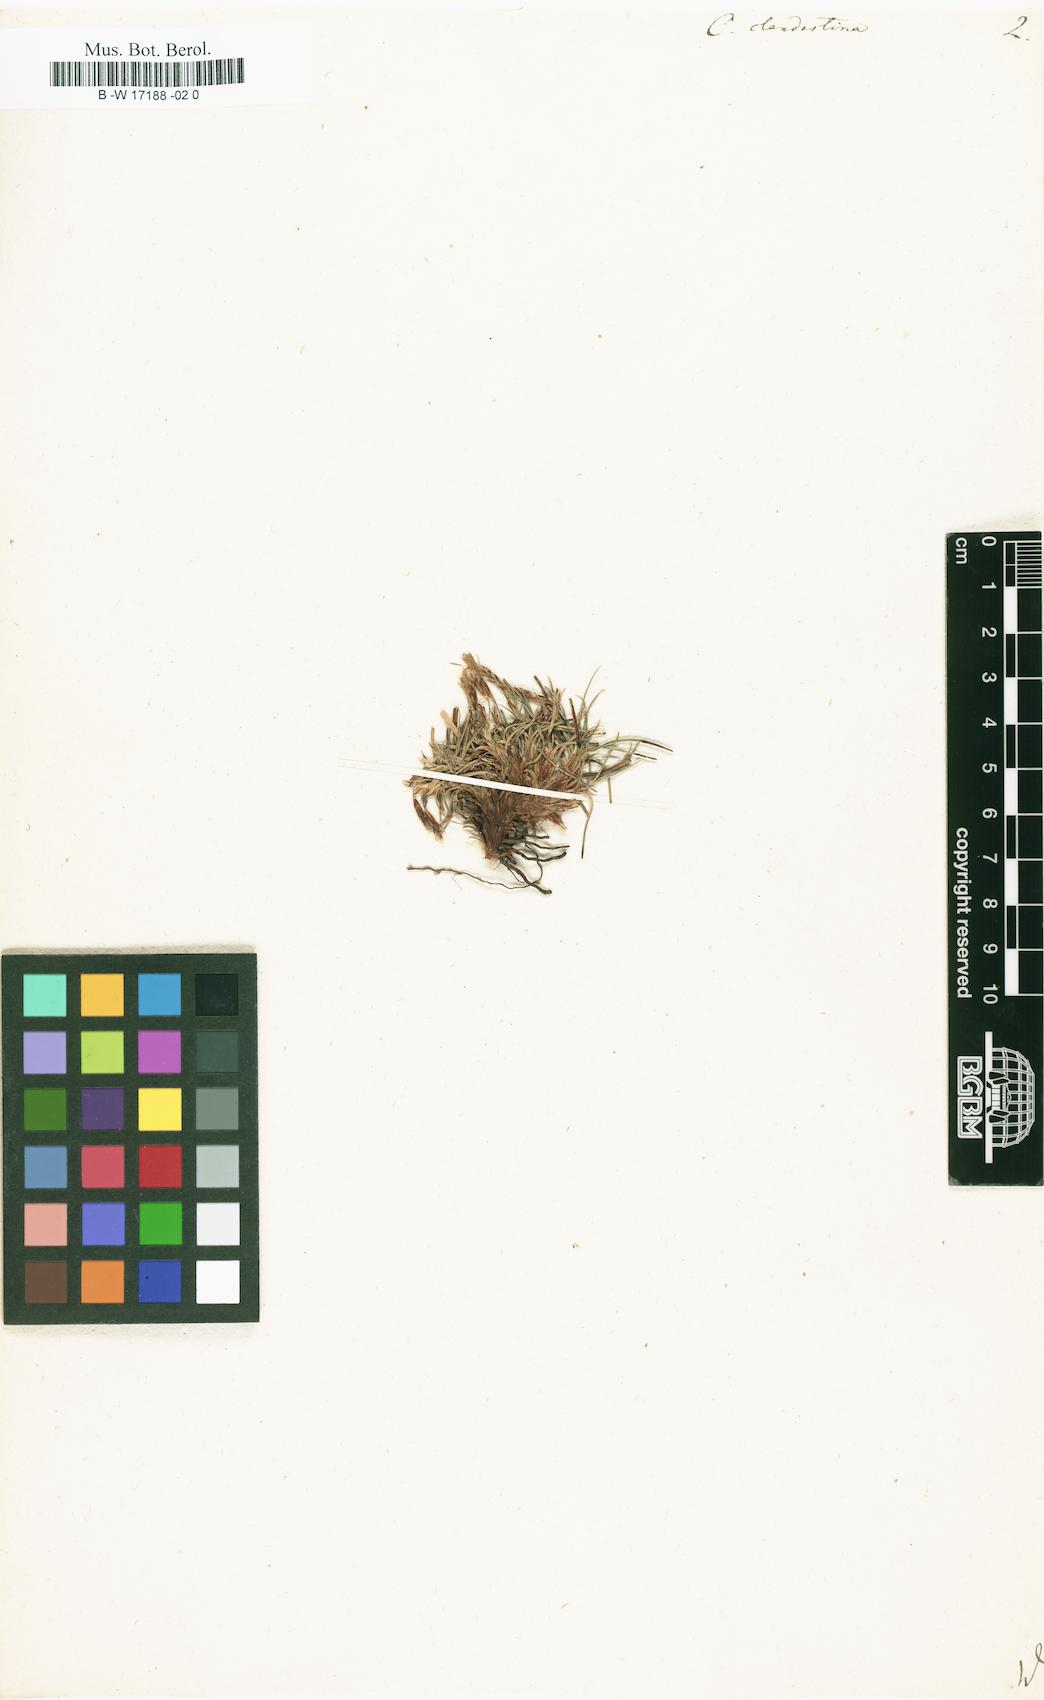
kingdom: Plantae
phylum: Tracheophyta
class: Liliopsida
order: Poales
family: Cyperaceae
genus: Carex
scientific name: Carex humilis
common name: Dwarf sedge
